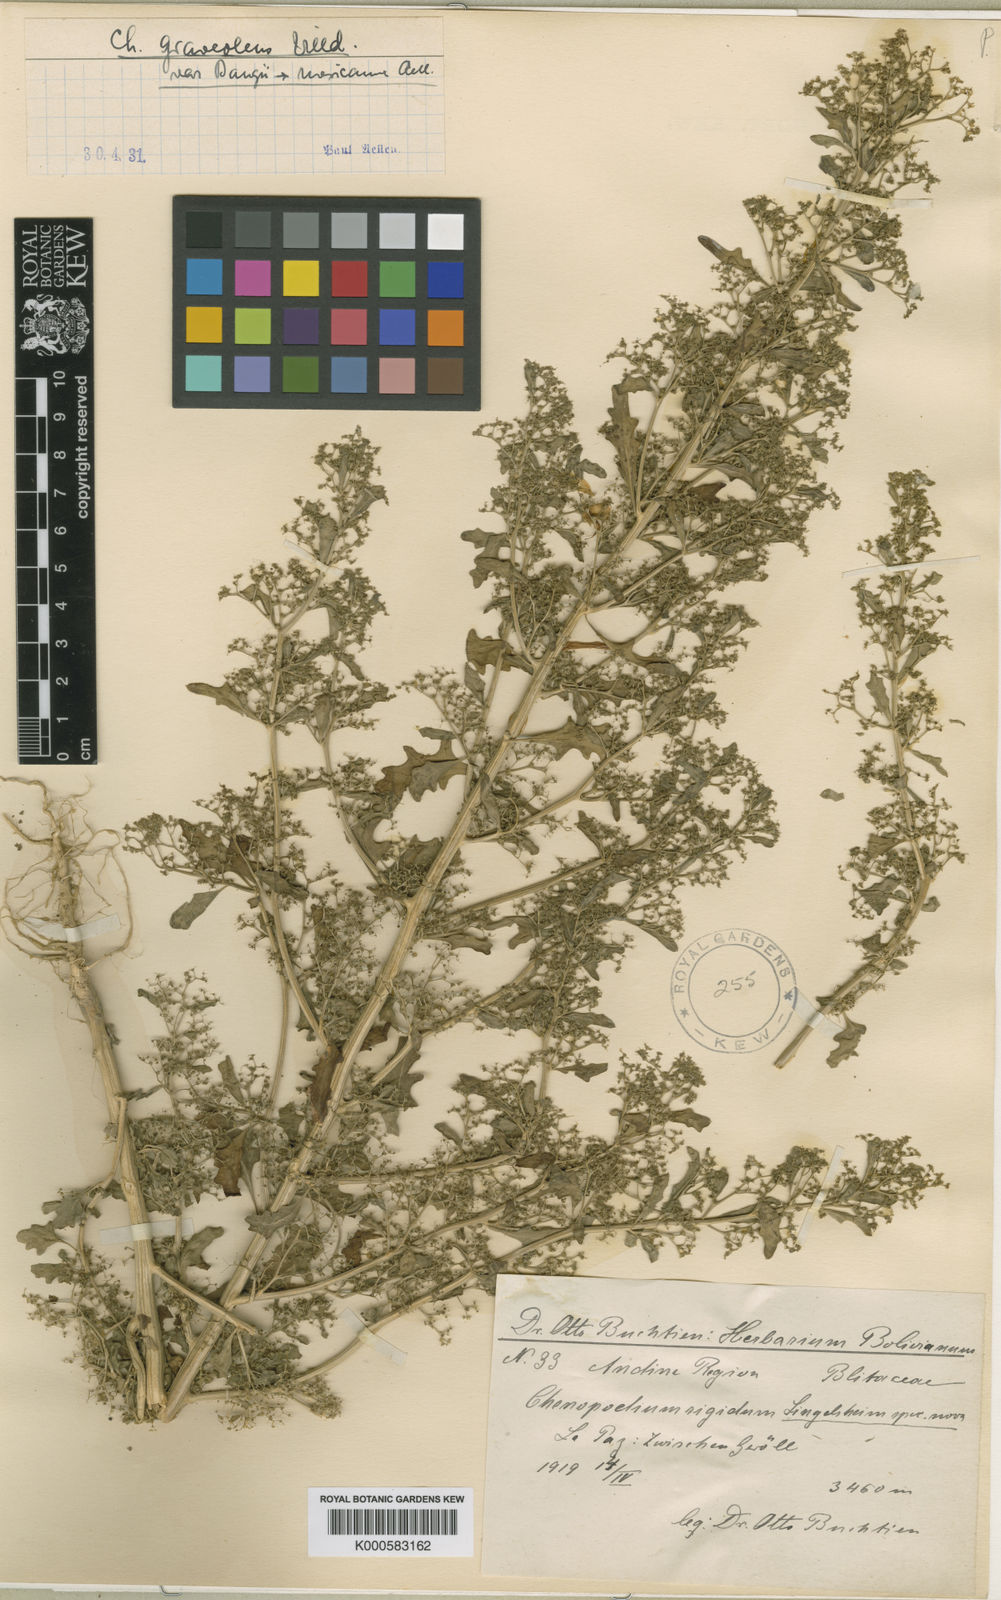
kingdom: Plantae
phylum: Tracheophyta
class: Magnoliopsida
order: Caryophyllales
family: Amaranthaceae
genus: Dysphania
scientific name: Dysphania graveolens
